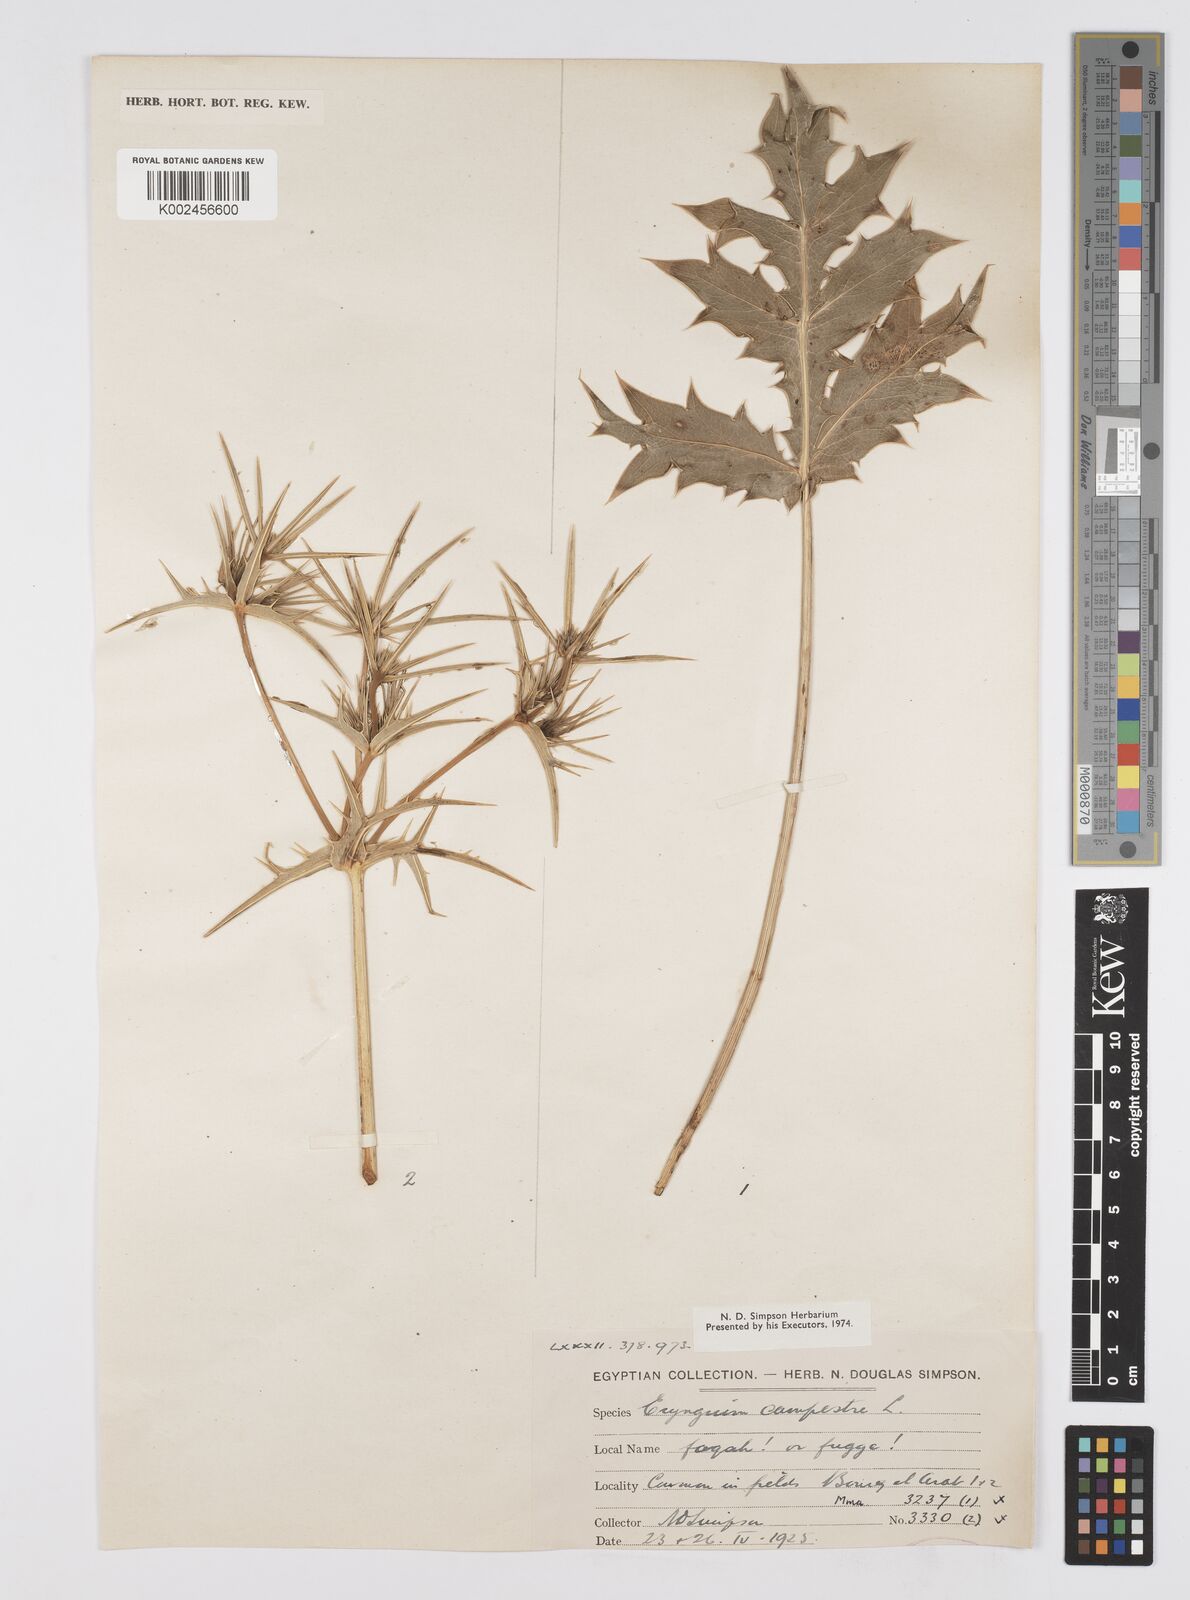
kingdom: Plantae
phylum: Tracheophyta
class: Magnoliopsida
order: Apiales
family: Apiaceae
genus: Eryngium
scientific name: Eryngium campestre
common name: Field eryngo
